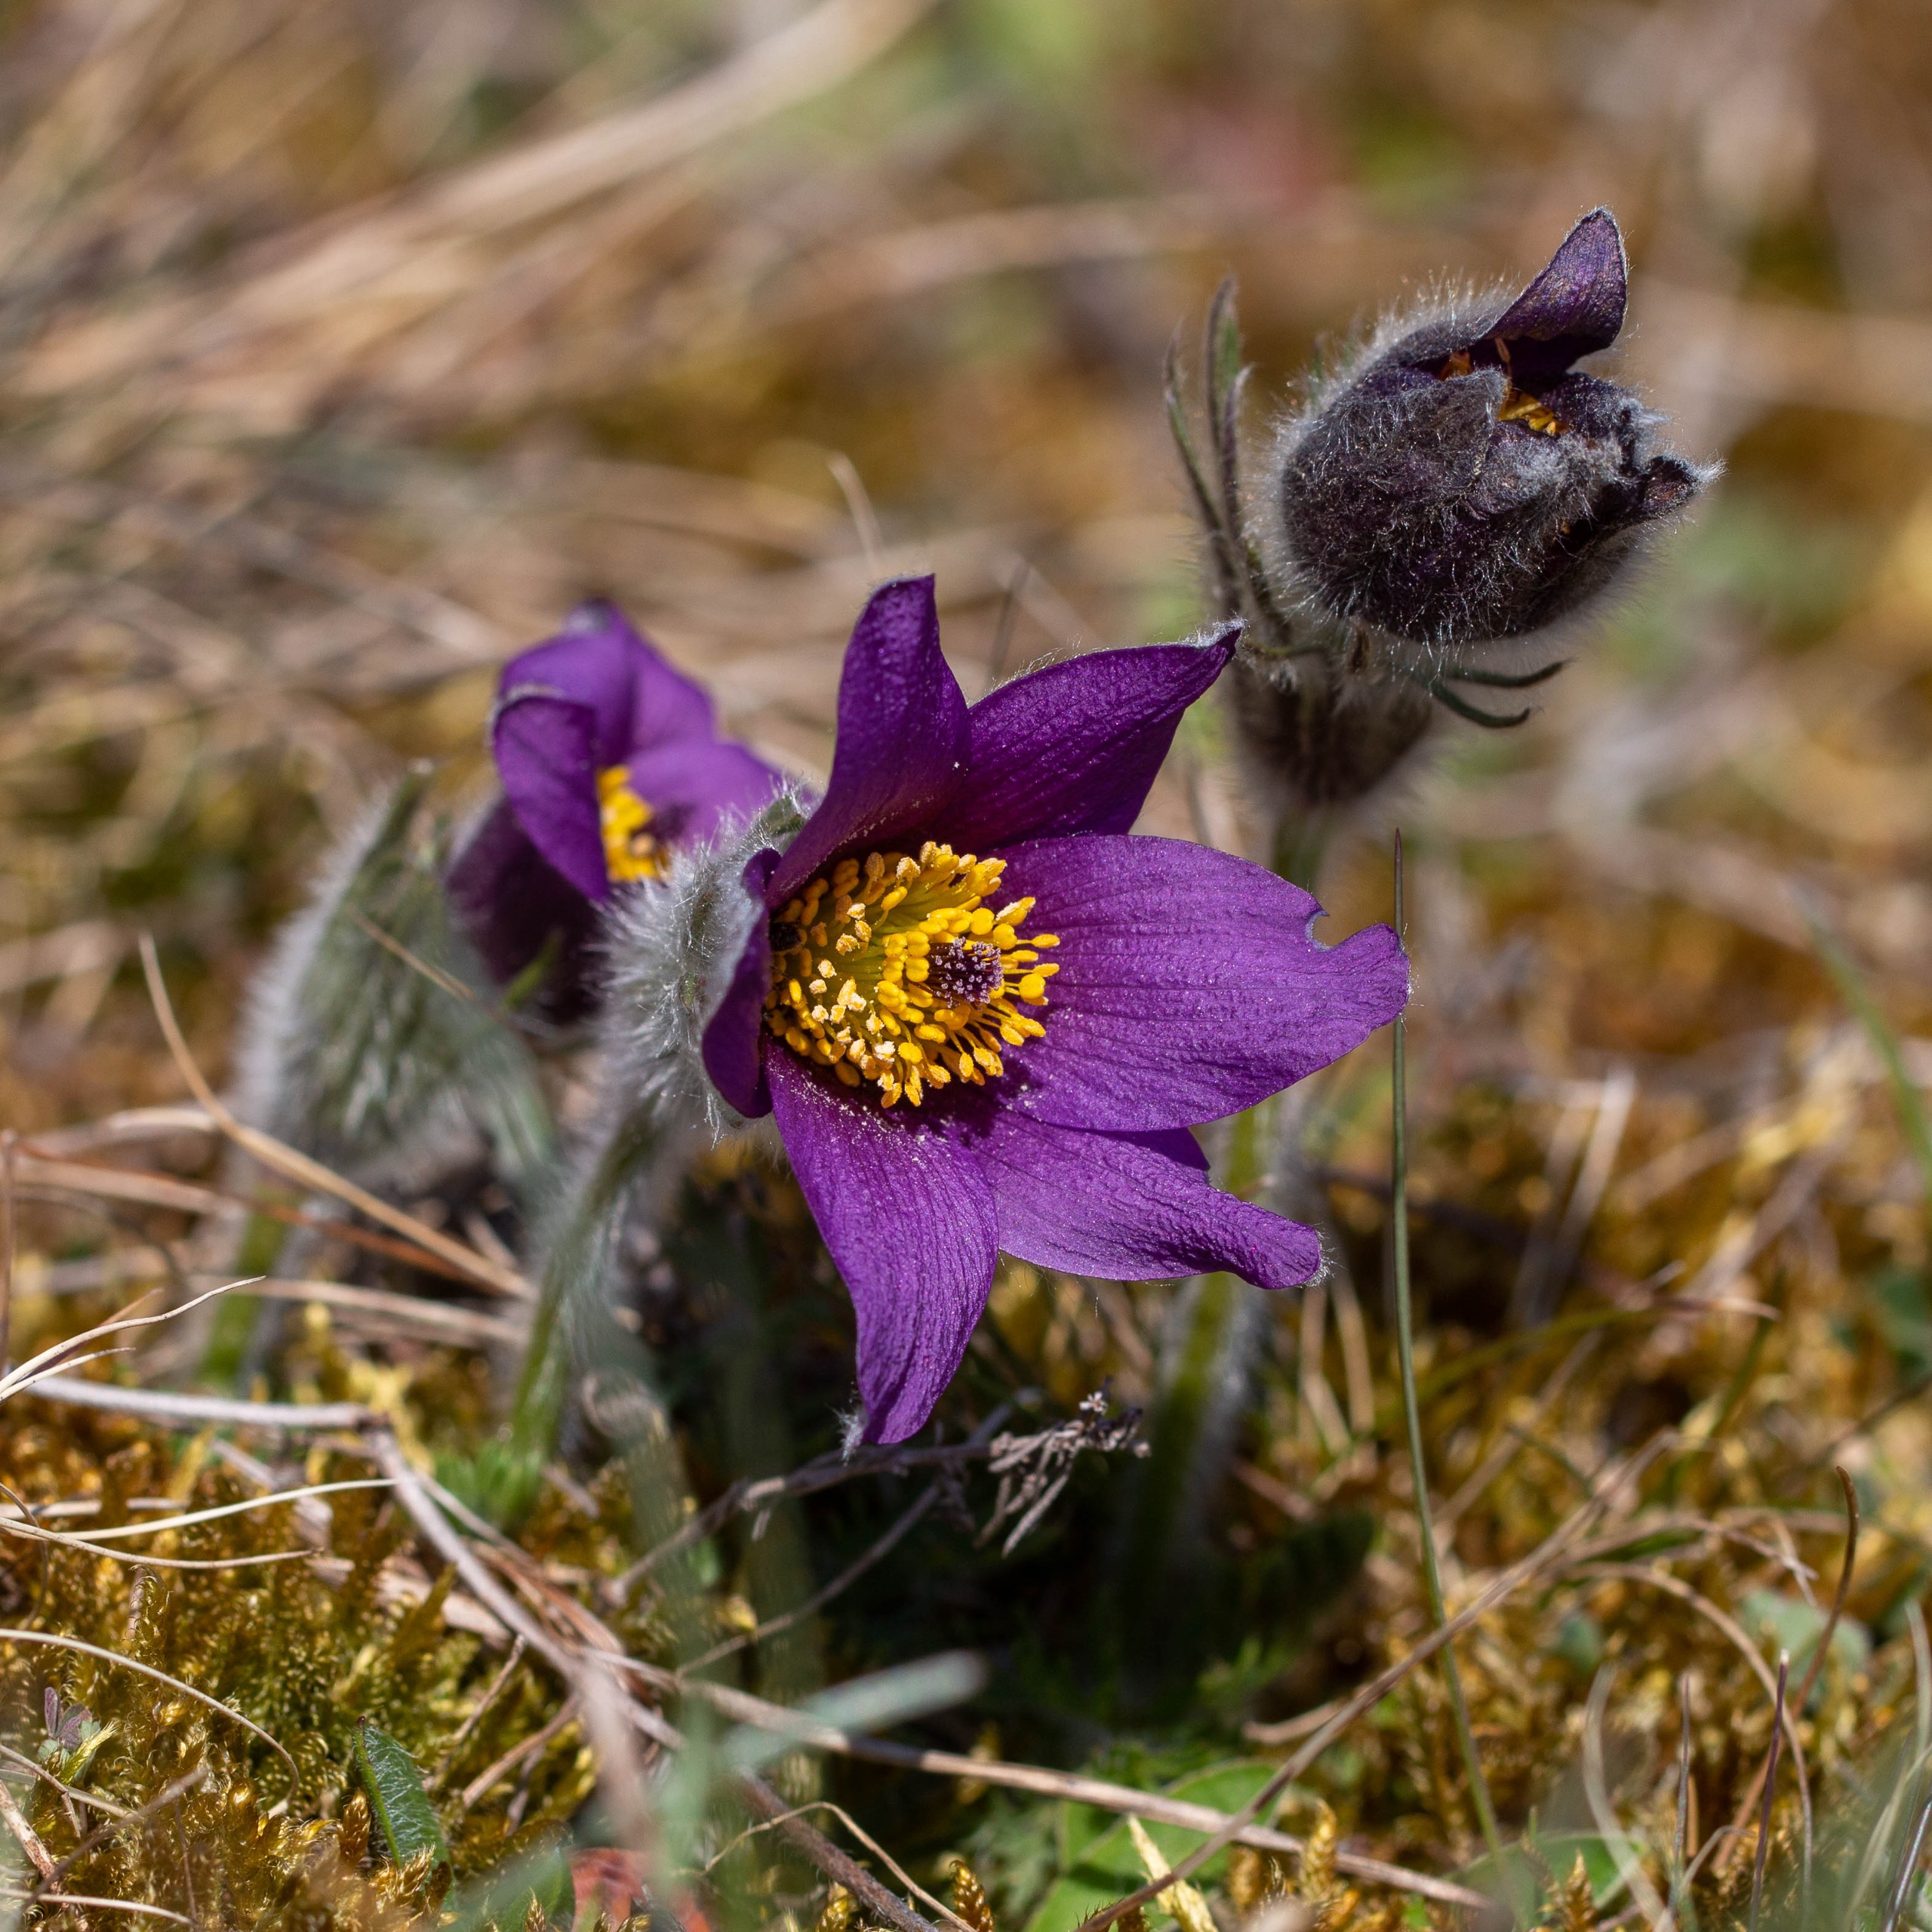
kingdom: Plantae
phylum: Tracheophyta
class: Magnoliopsida
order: Ranunculales
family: Ranunculaceae
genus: Pulsatilla
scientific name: Pulsatilla vulgaris
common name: Opret kobjælde
